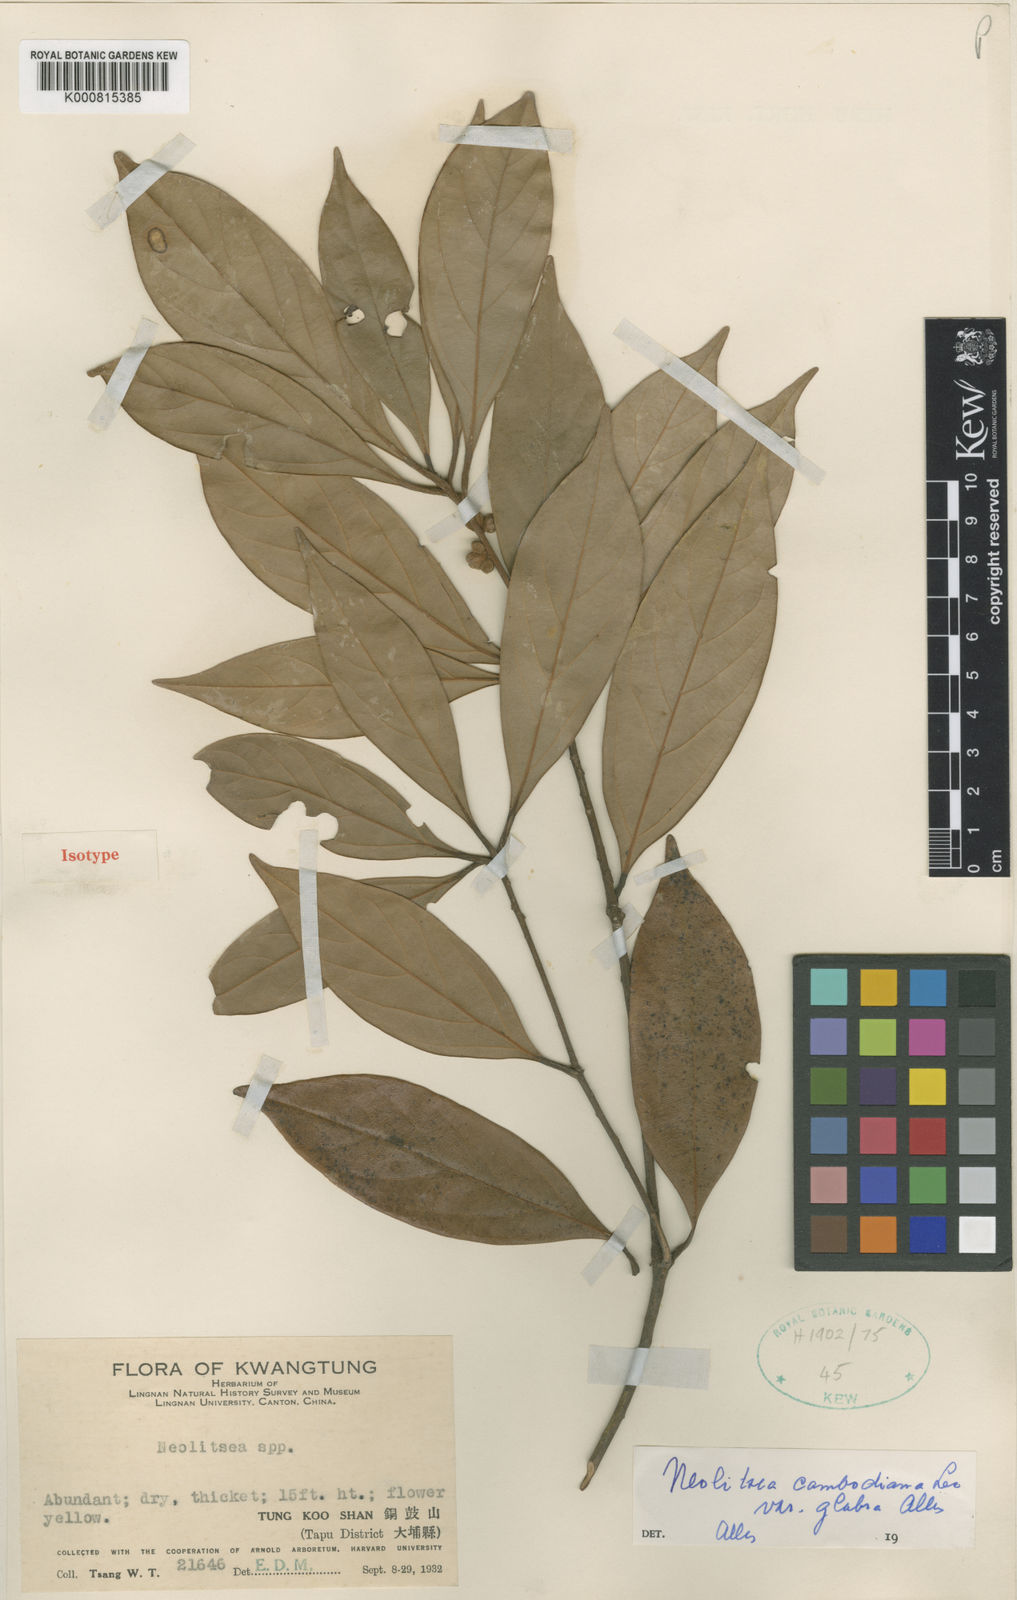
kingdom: Plantae
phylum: Tracheophyta
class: Magnoliopsida
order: Laurales
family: Lauraceae
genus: Neolitsea
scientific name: Neolitsea cambodiana
